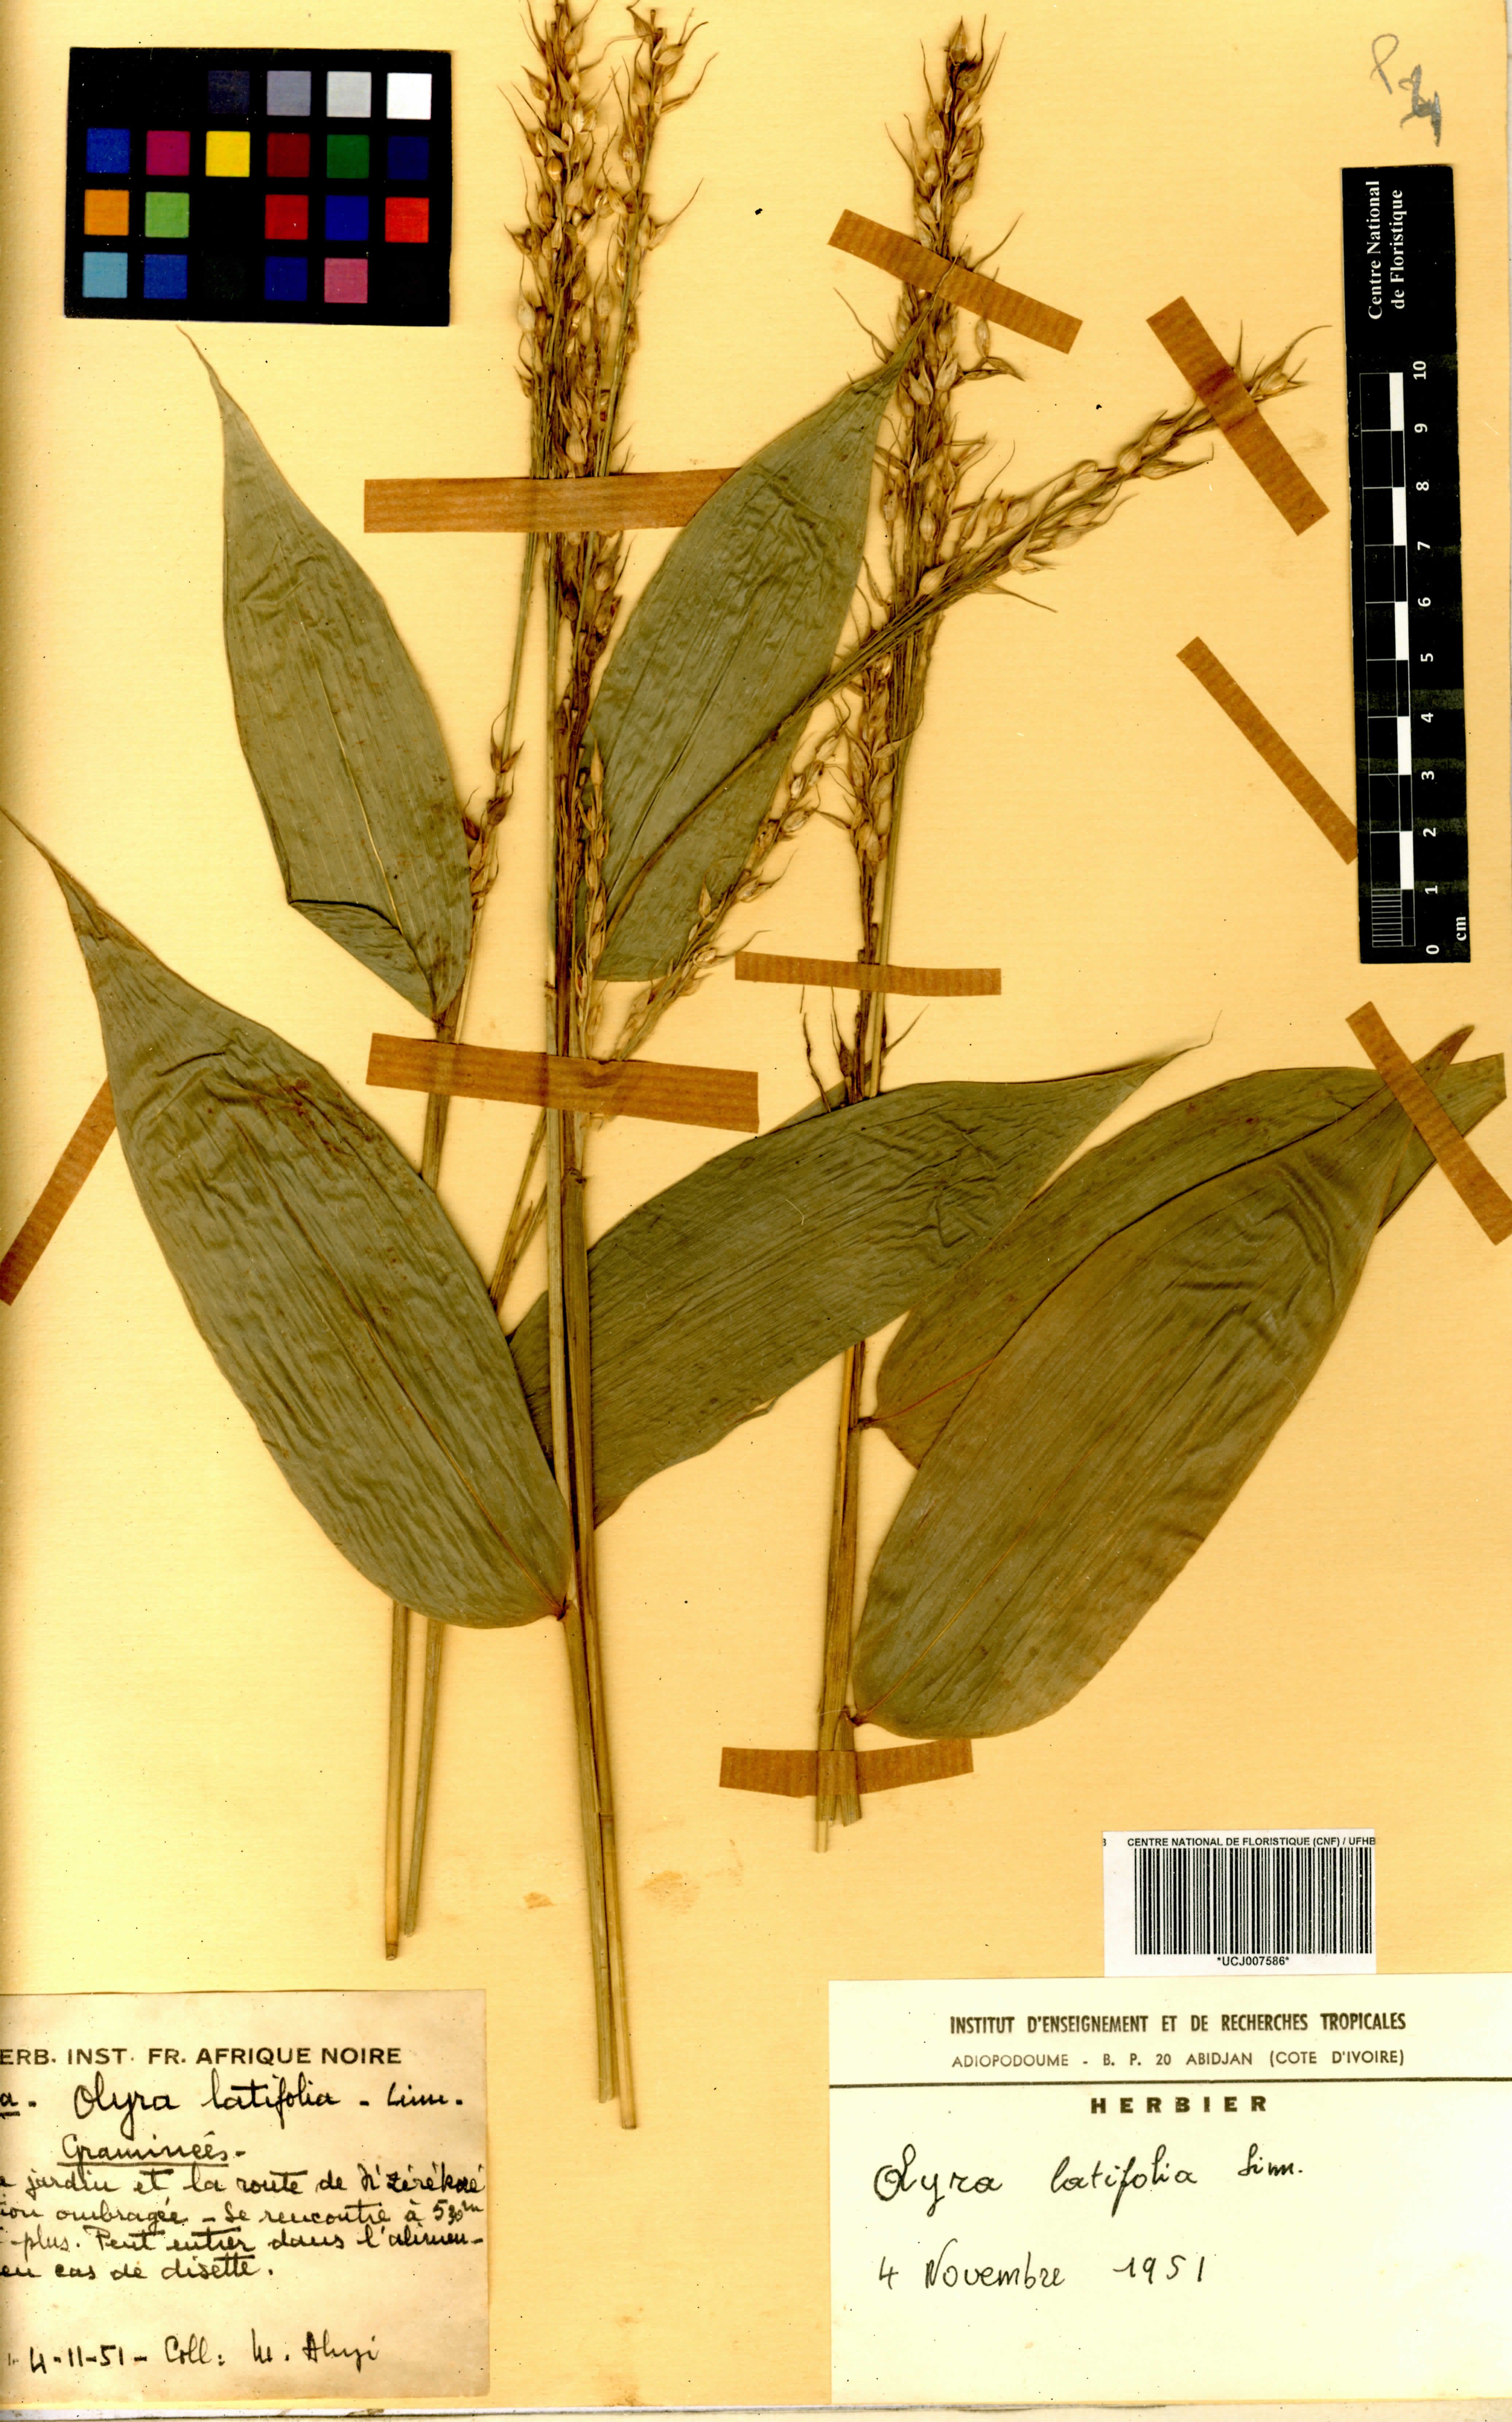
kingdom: Plantae
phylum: Tracheophyta
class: Liliopsida
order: Poales
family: Poaceae
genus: Olyra
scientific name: Olyra latifolia
